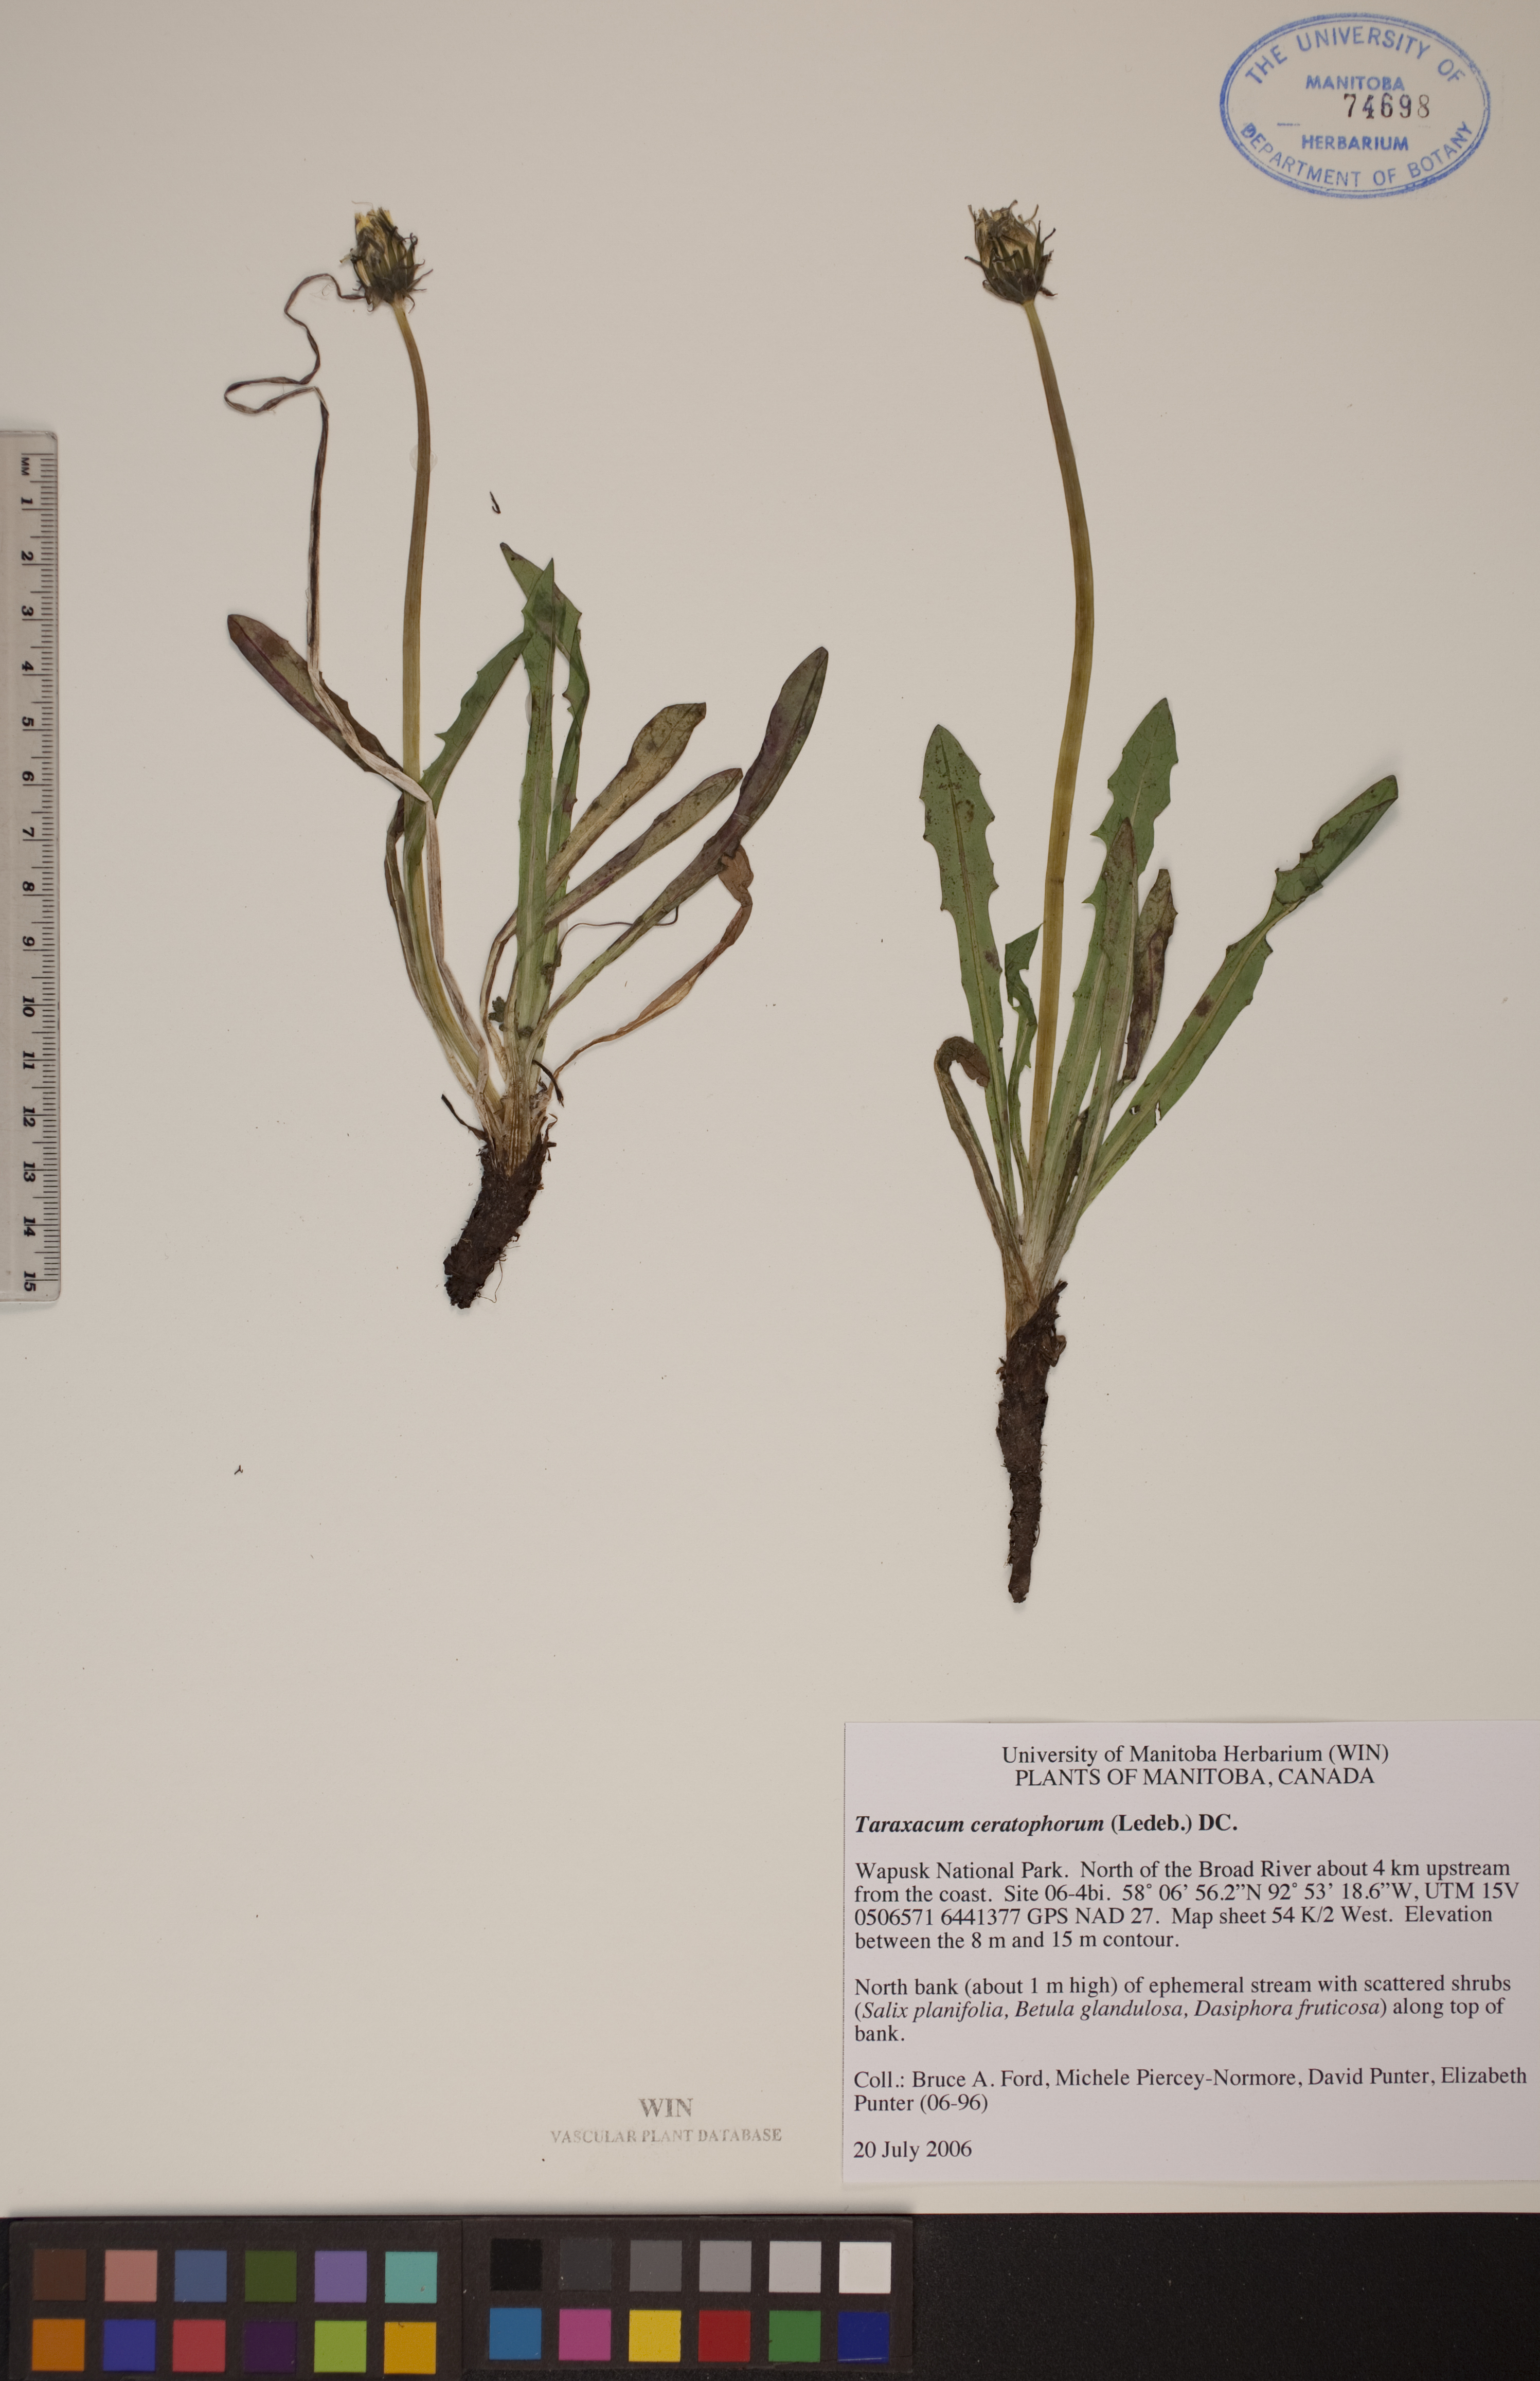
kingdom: Plantae
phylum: Tracheophyta
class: Magnoliopsida
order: Asterales
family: Asteraceae
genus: Taraxacum
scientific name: Taraxacum ceratophorum
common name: Horn-bearing dandelion
